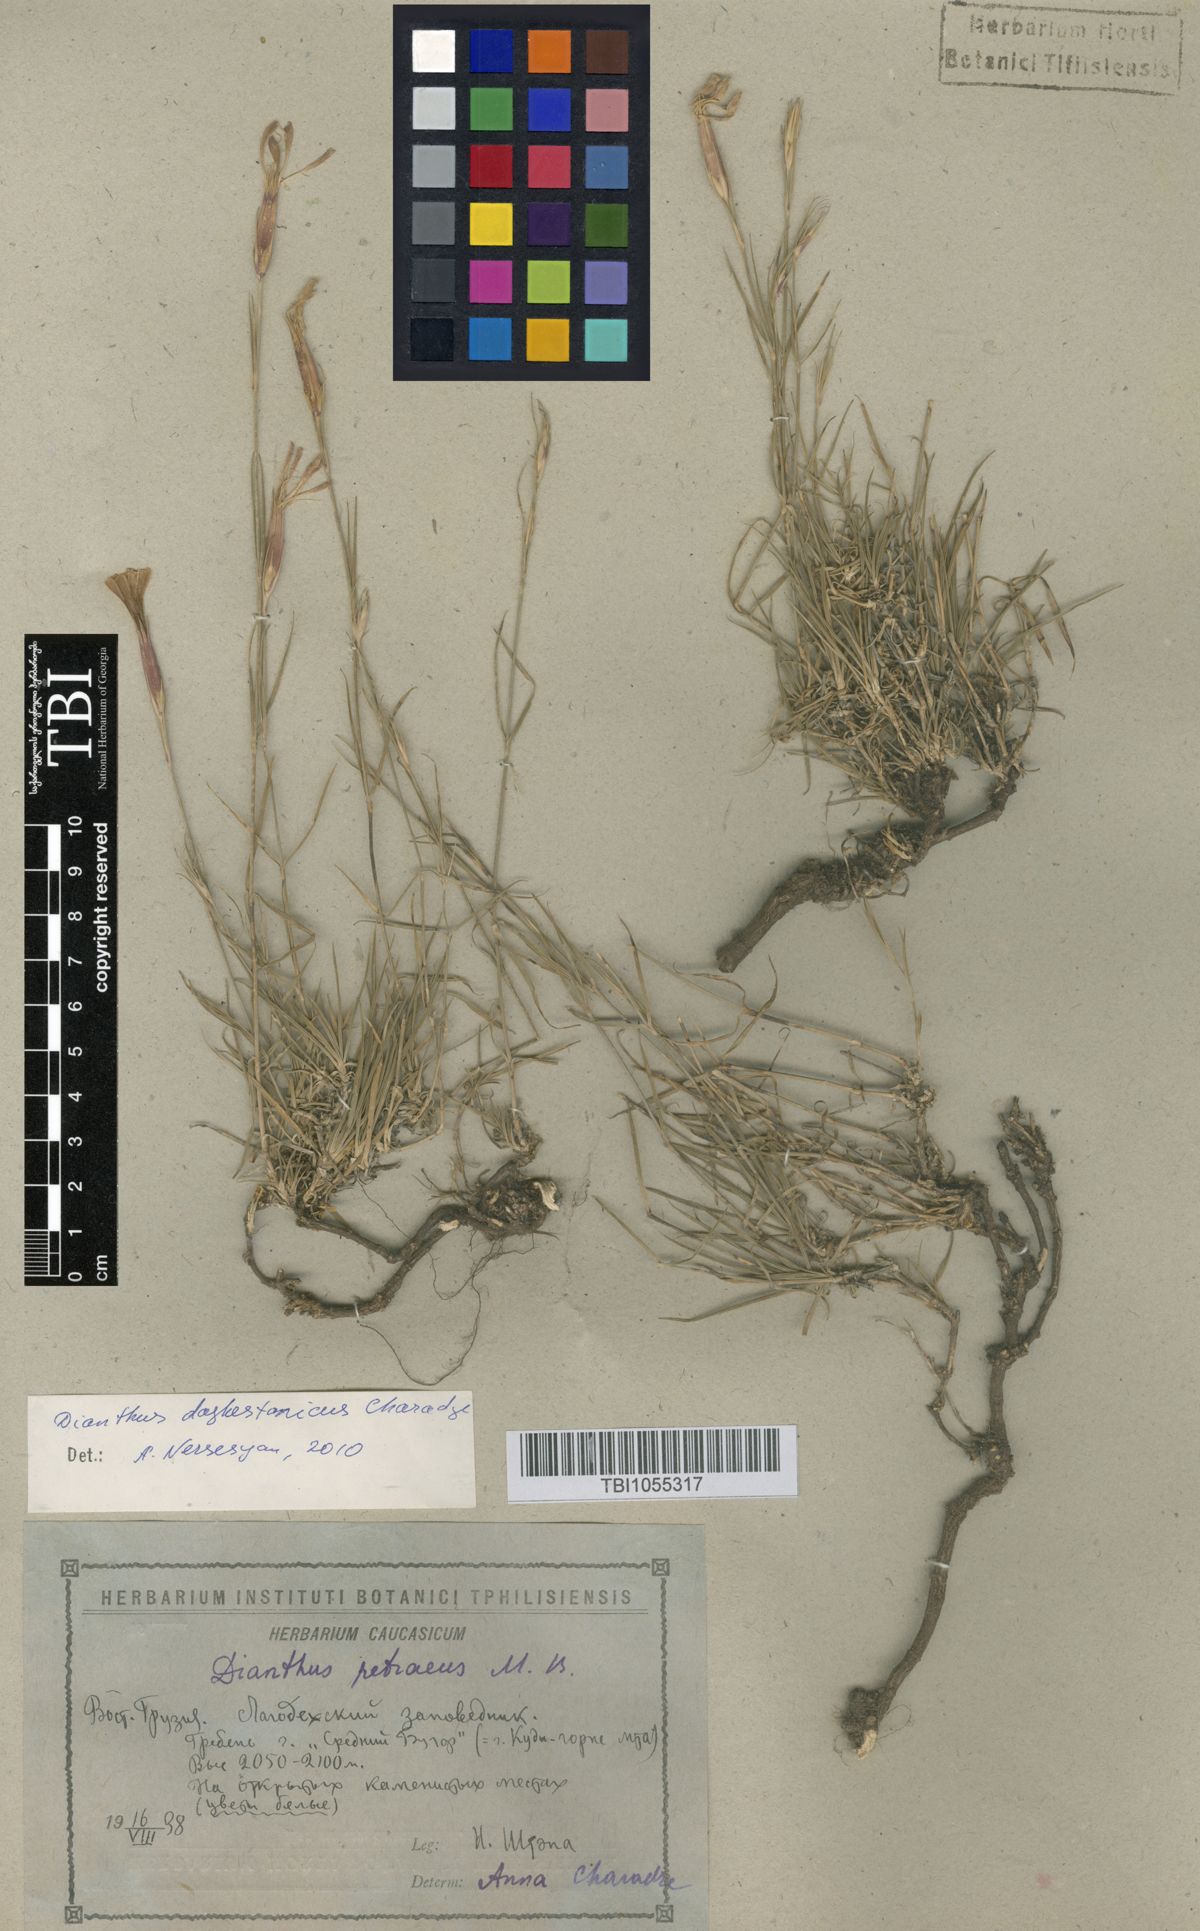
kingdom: Plantae
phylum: Tracheophyta
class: Magnoliopsida
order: Caryophyllales
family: Caryophyllaceae
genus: Dianthus
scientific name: Dianthus cretaceus
